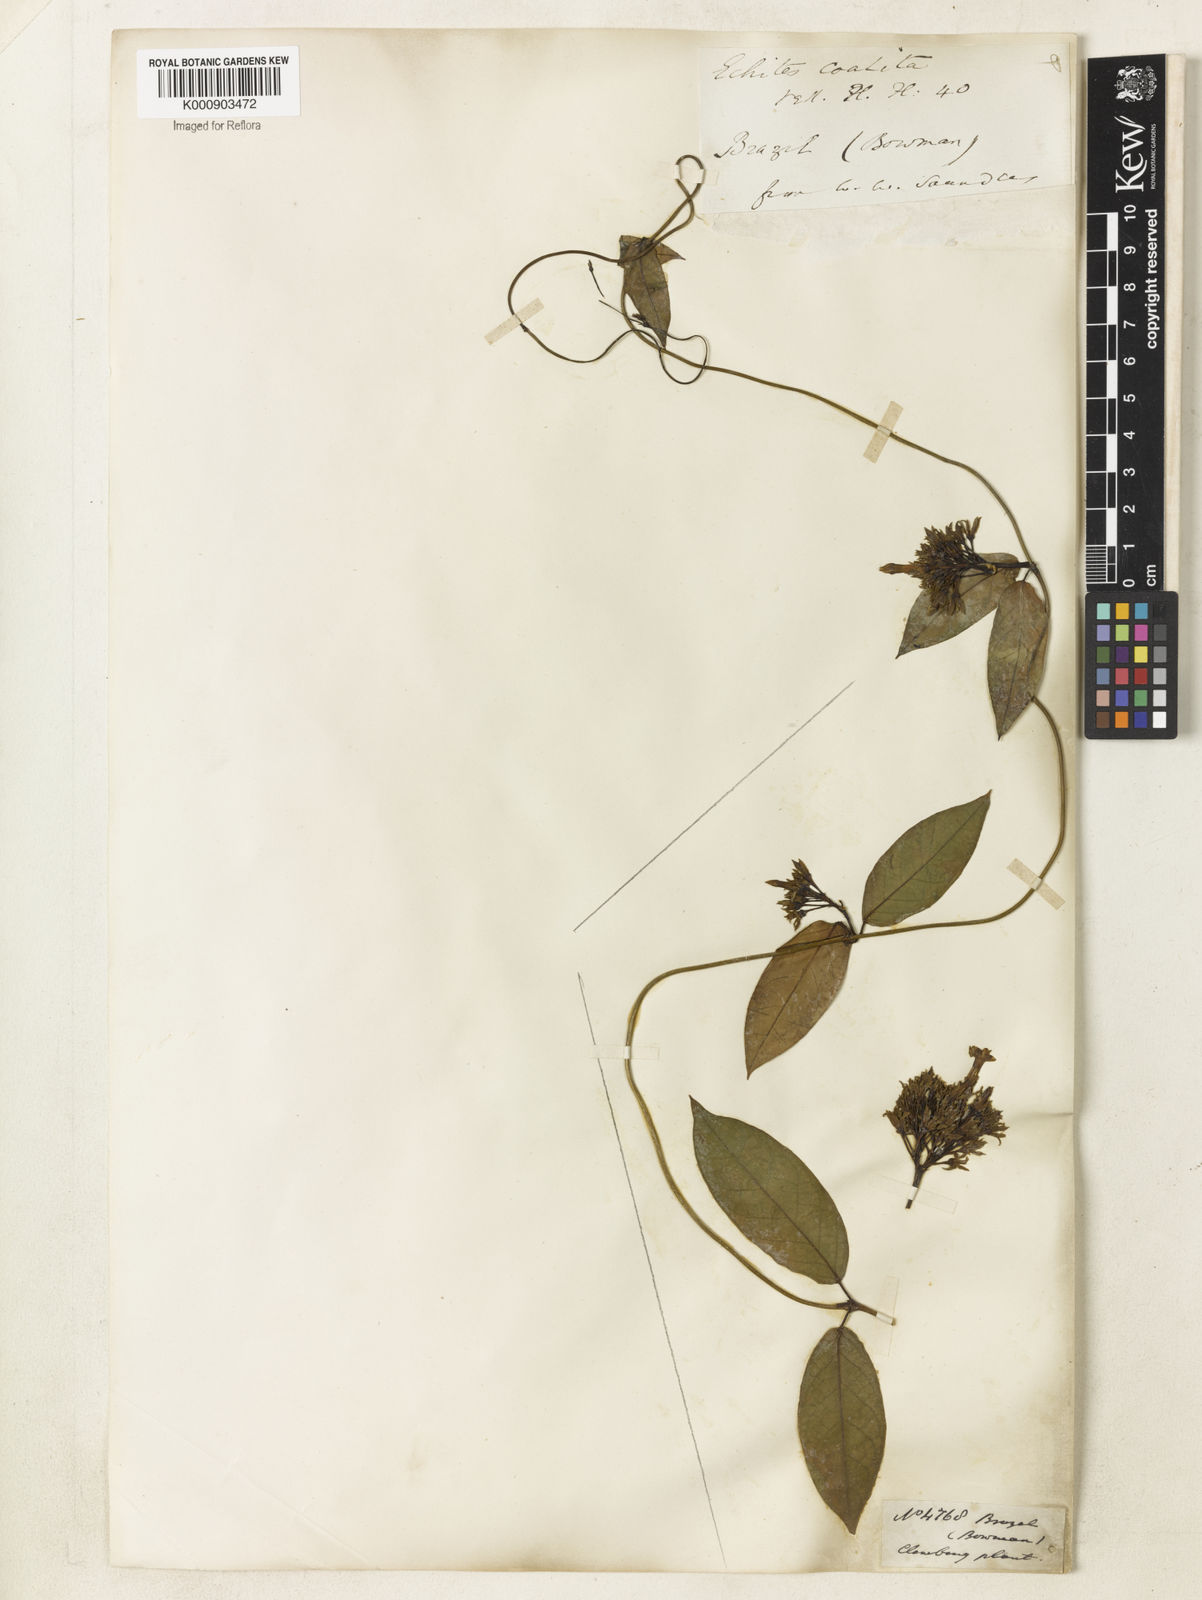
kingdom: Plantae
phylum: Tracheophyta
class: Magnoliopsida
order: Gentianales
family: Apocynaceae
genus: Prestonia
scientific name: Prestonia coalita
